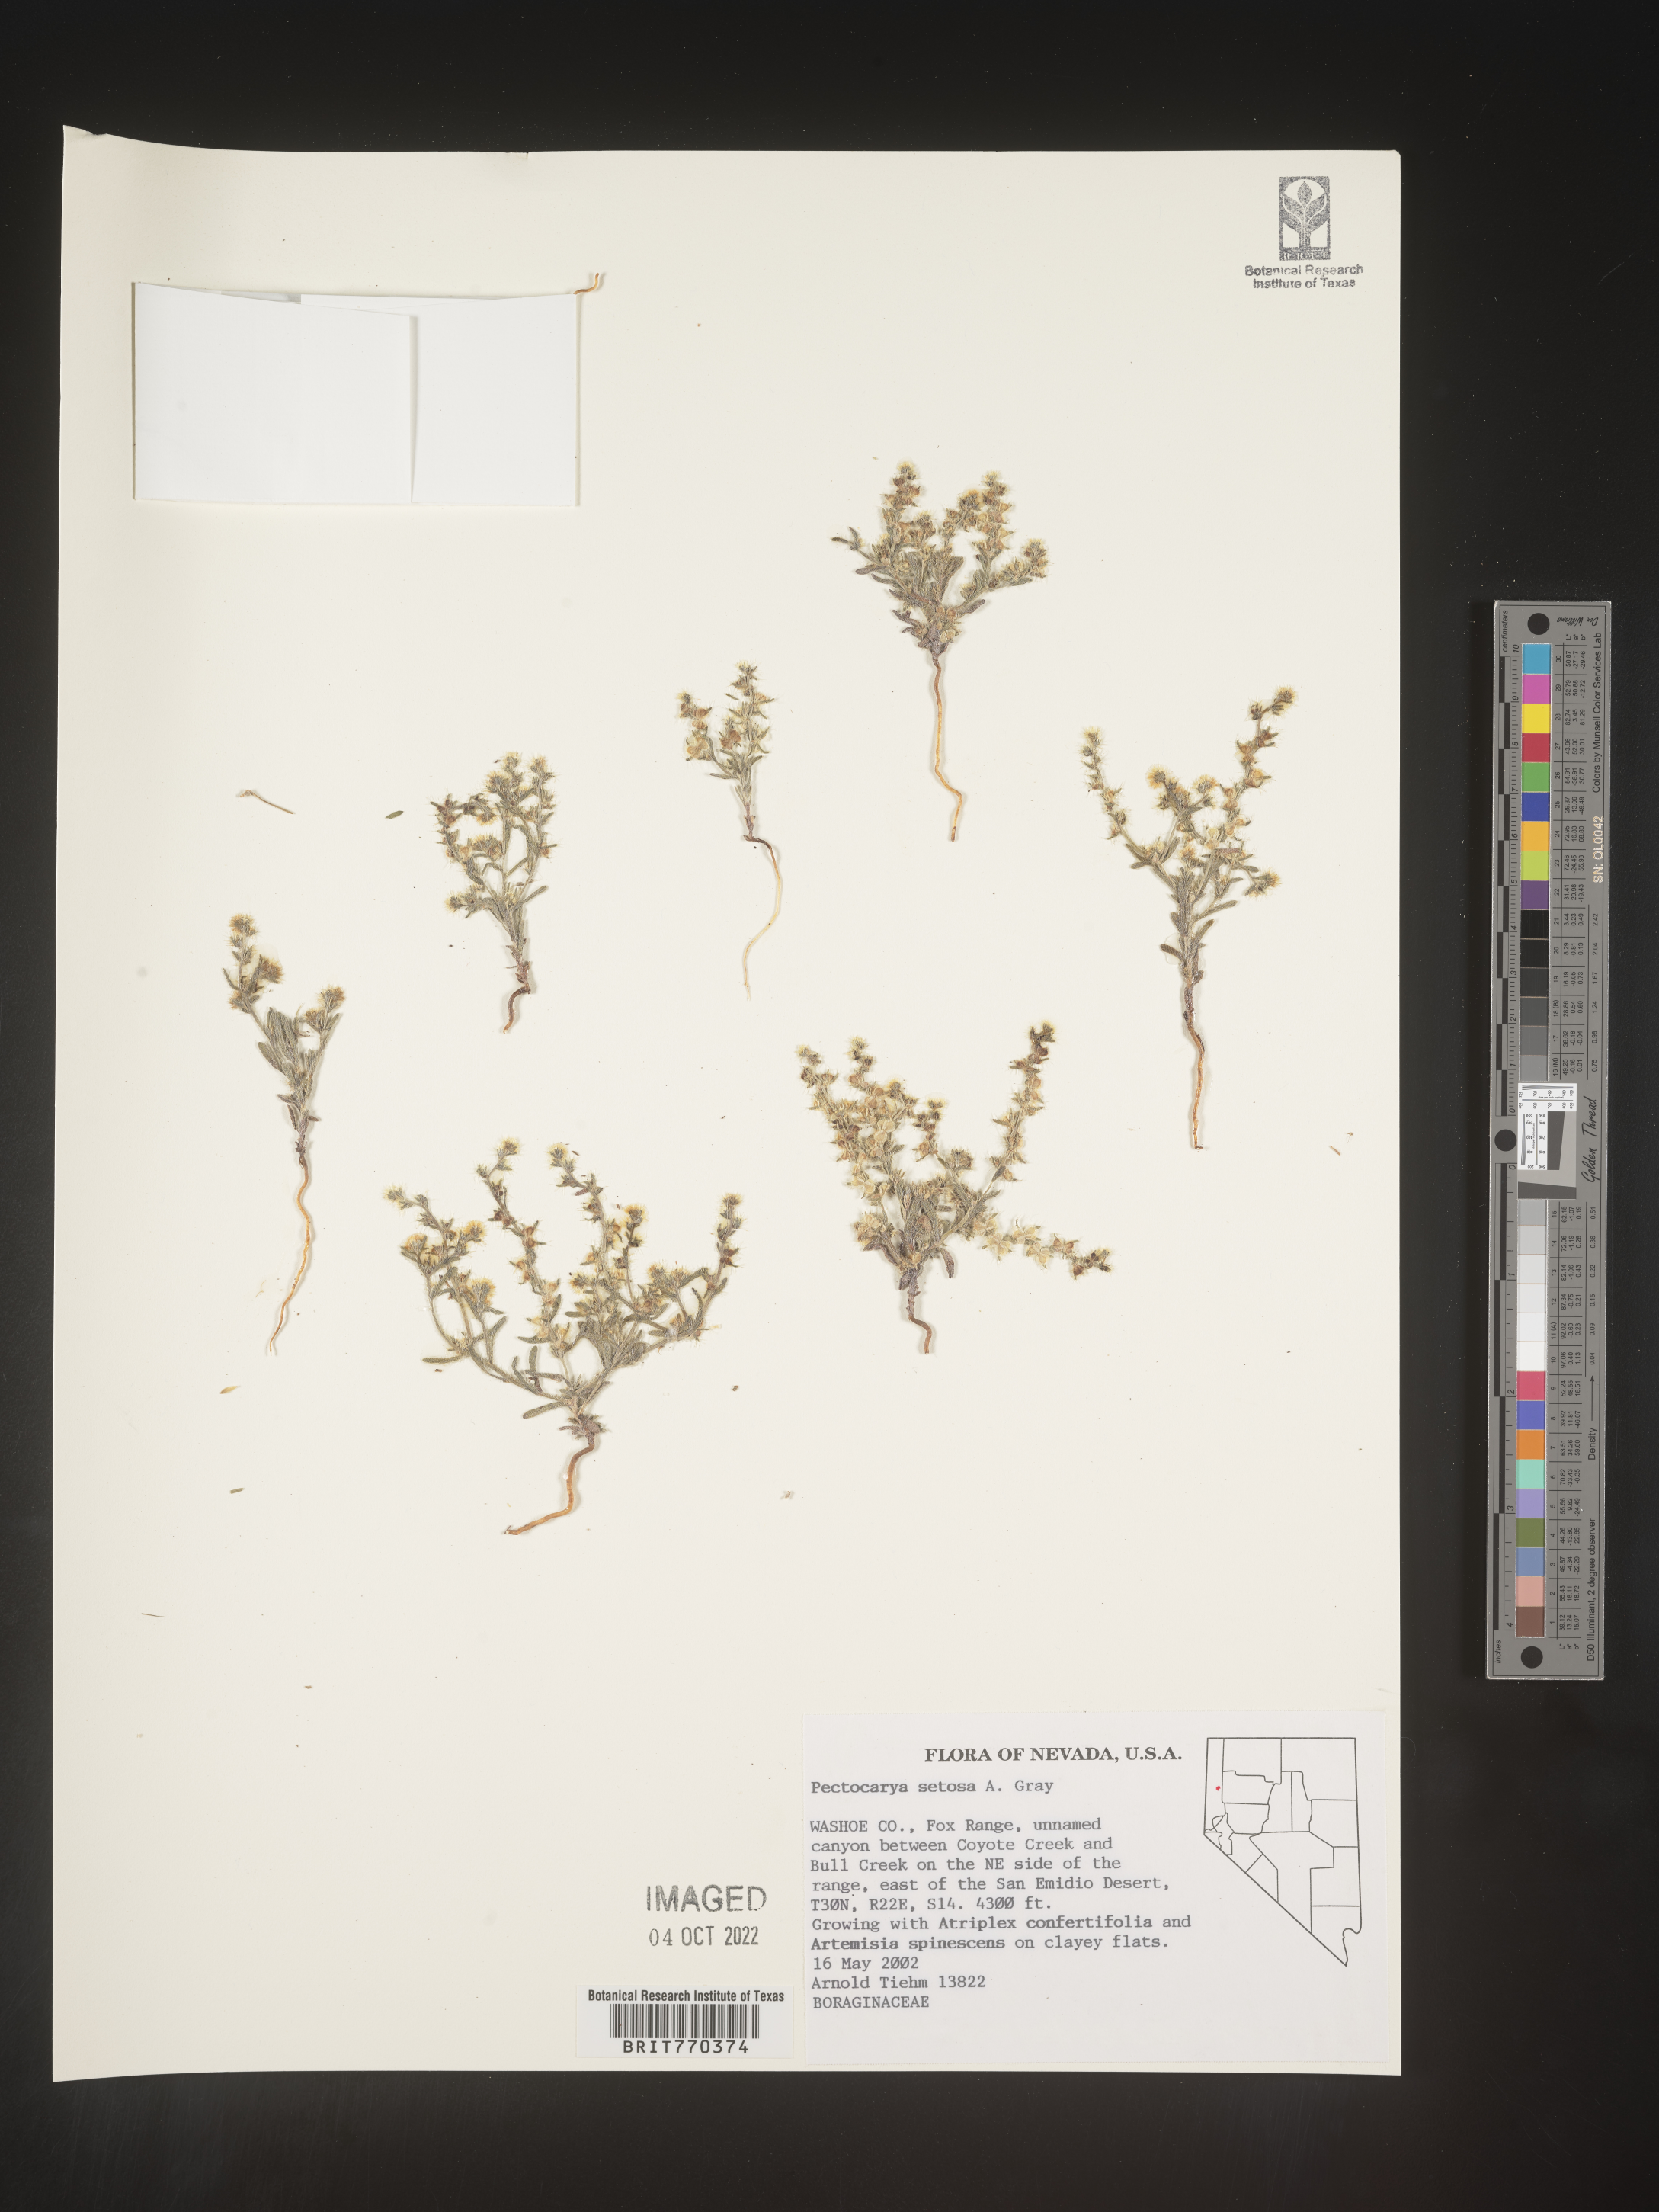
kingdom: Plantae
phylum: Tracheophyta
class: Magnoliopsida
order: Boraginales
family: Boraginaceae
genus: Pectocarya
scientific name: Pectocarya
